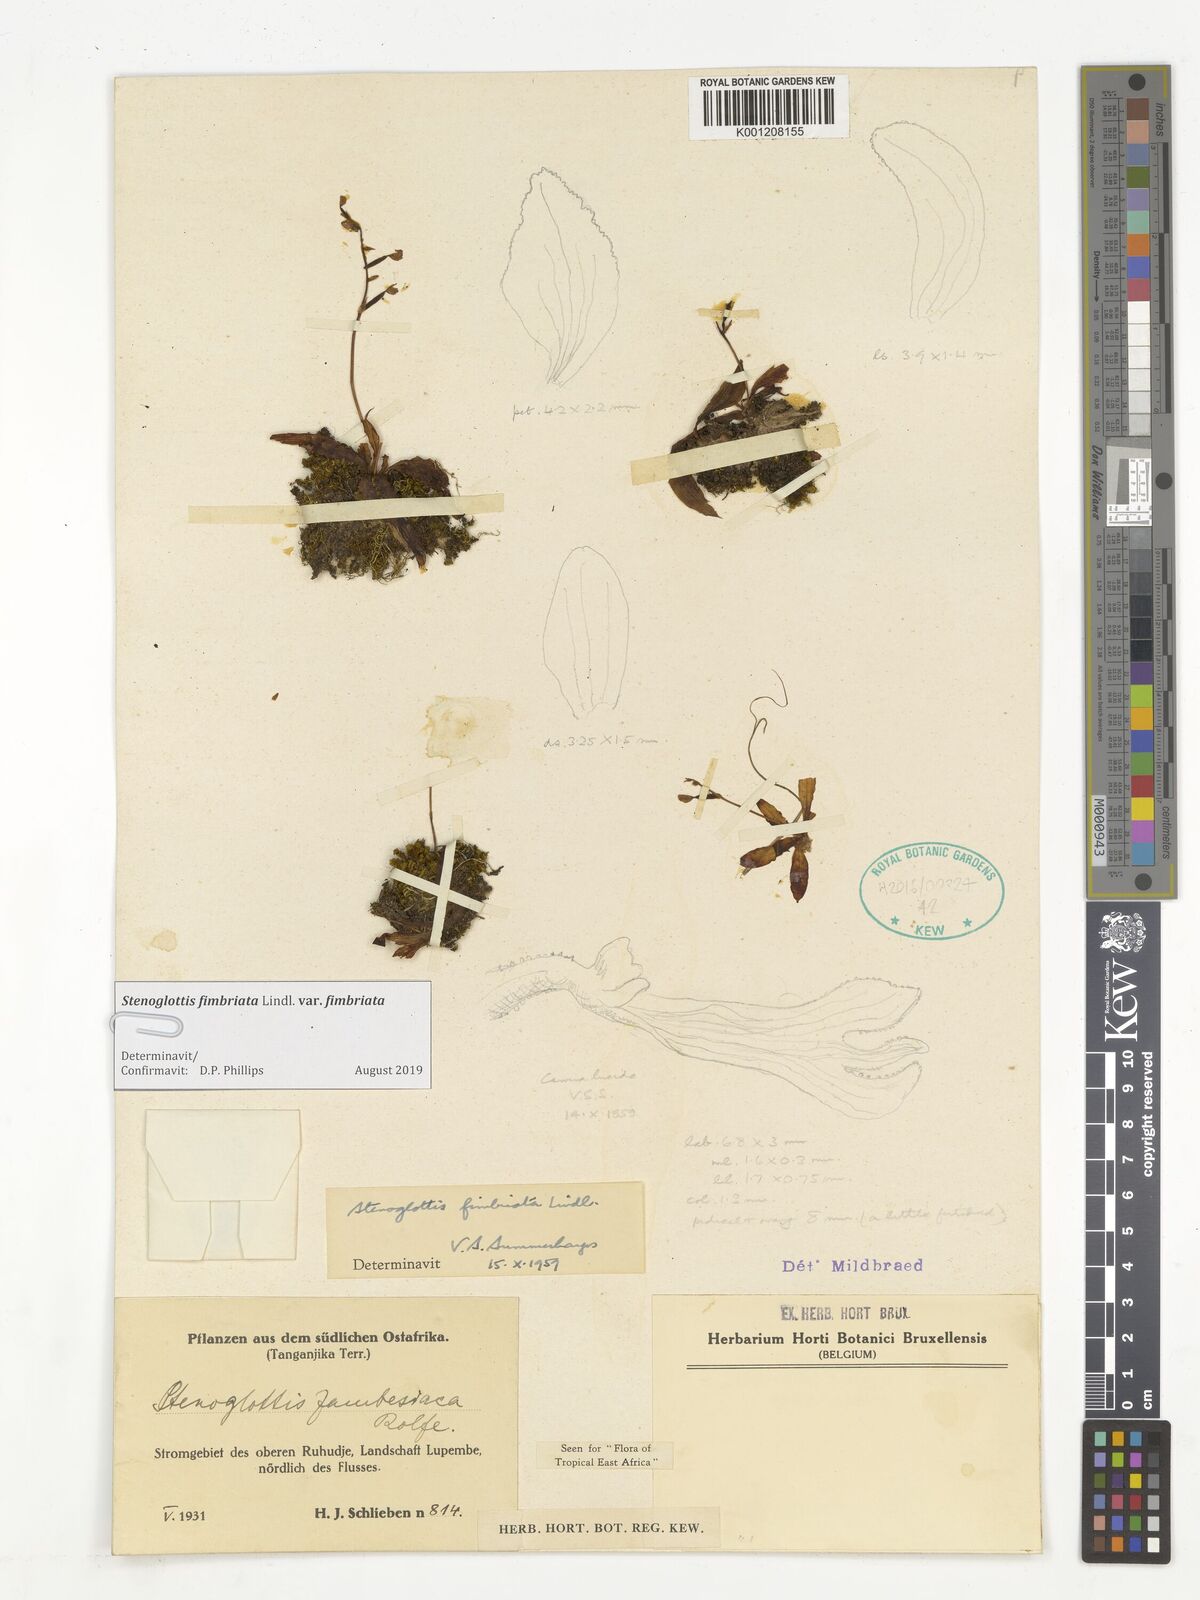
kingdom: Plantae
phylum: Tracheophyta
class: Liliopsida
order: Asparagales
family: Orchidaceae
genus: Stenoglottis
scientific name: Stenoglottis fimbriata
